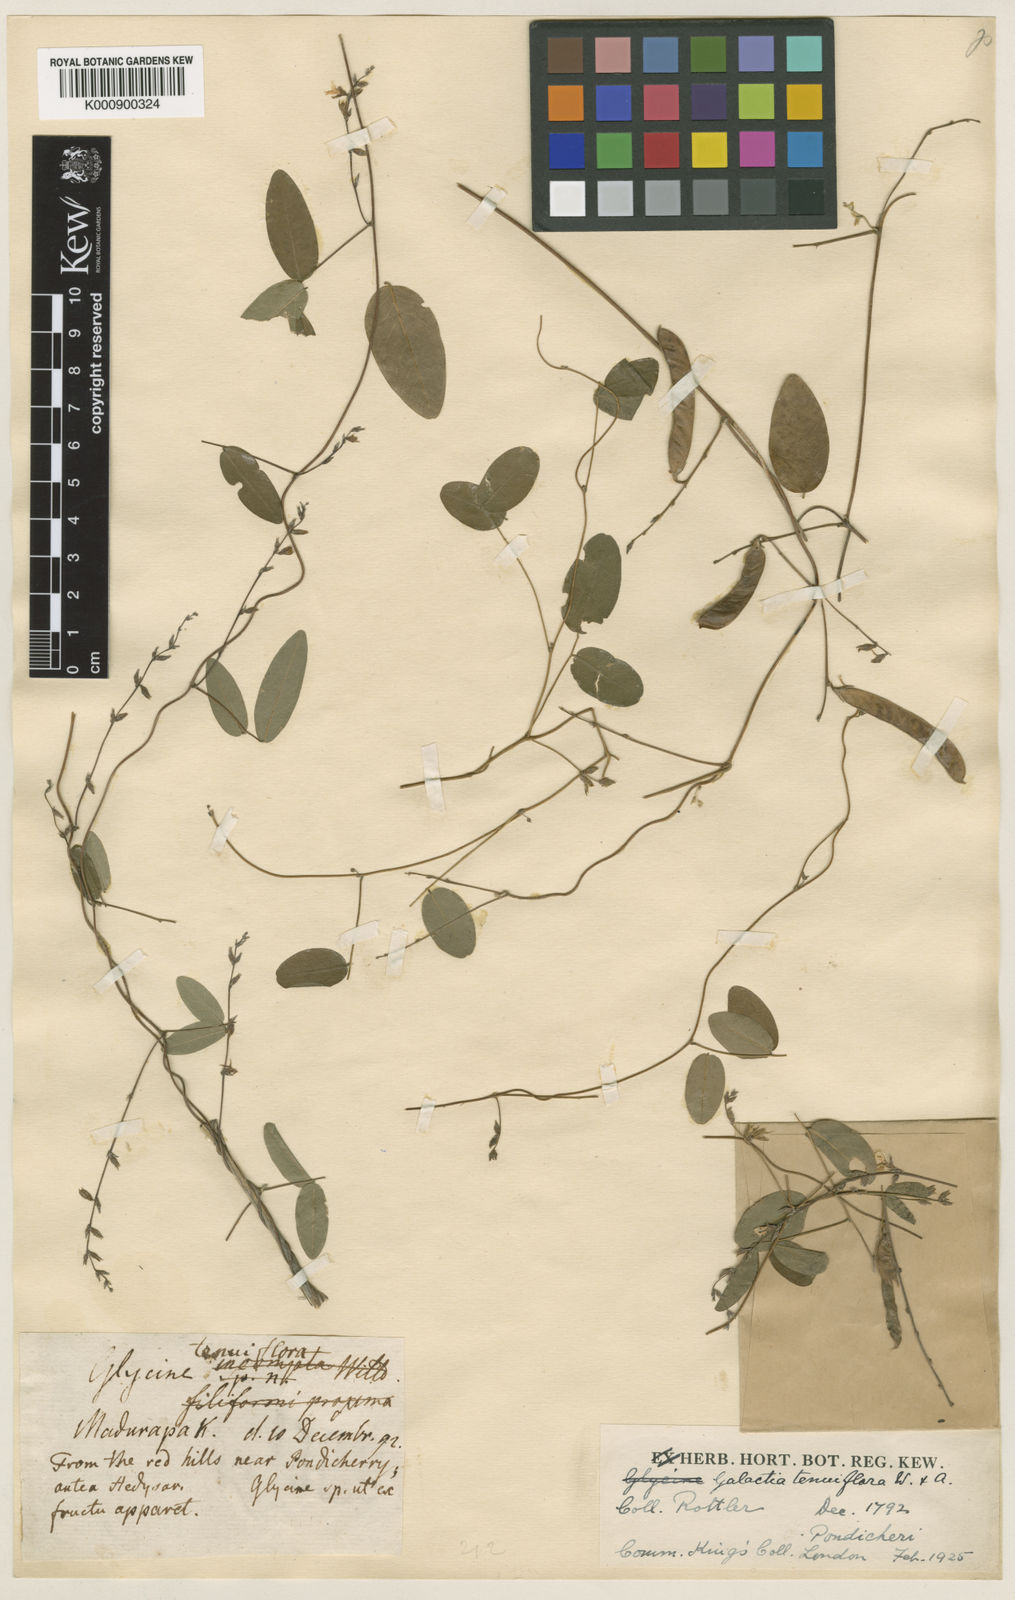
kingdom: Plantae
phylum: Tracheophyta
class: Magnoliopsida
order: Fabales
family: Fabaceae
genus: Galactia
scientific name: Galactia striata
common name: Florida hammock milkpea
